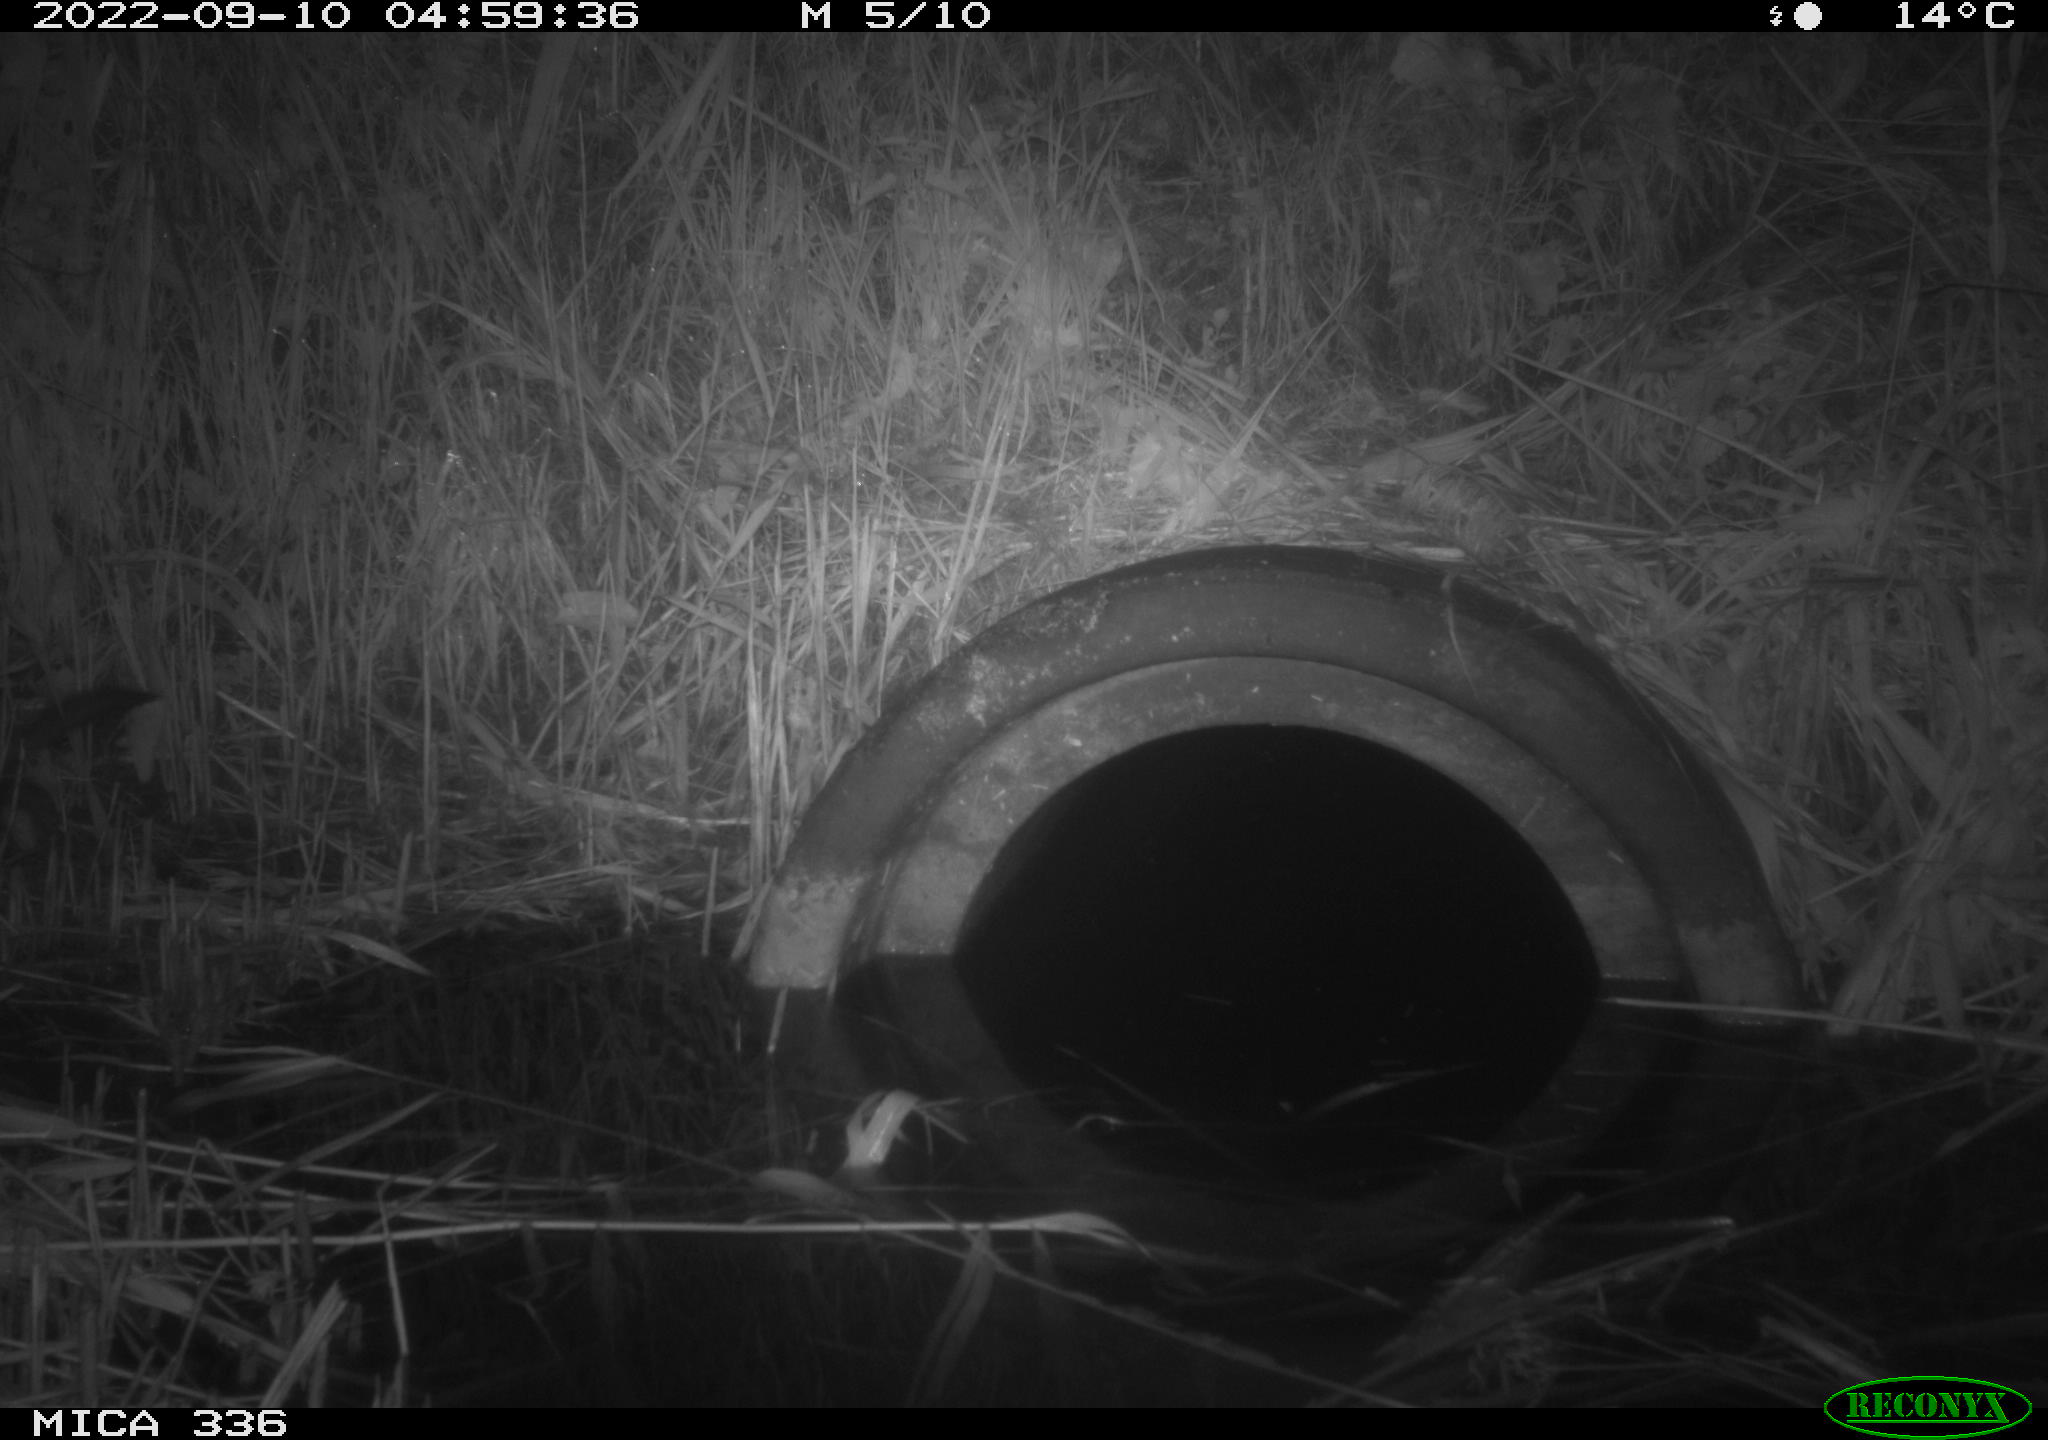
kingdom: Animalia
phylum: Chordata
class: Mammalia
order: Carnivora
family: Mustelidae
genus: Mustela
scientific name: Mustela putorius
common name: European polecat
